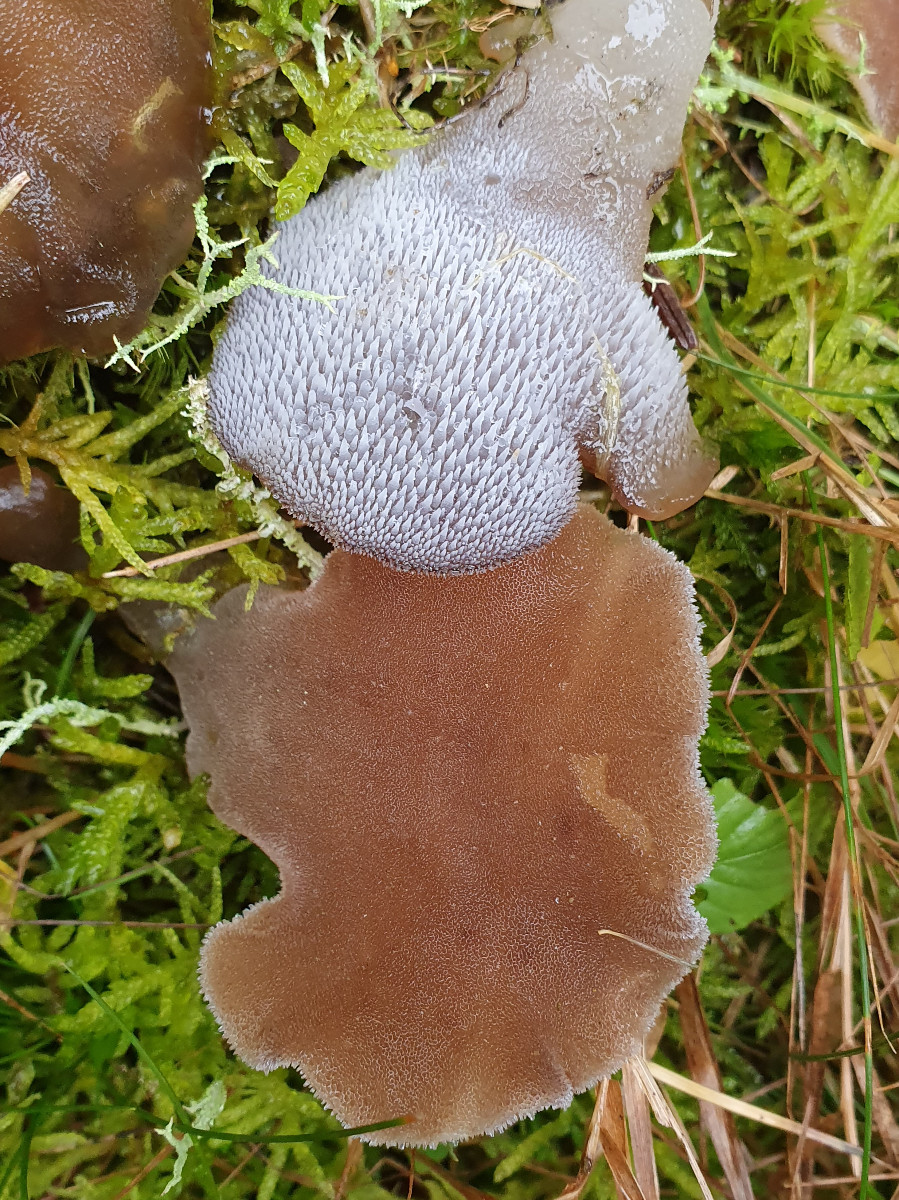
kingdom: Fungi
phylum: Basidiomycota
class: Agaricomycetes
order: Auriculariales
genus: Pseudohydnum
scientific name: Pseudohydnum gelatinosum
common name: bævretand
